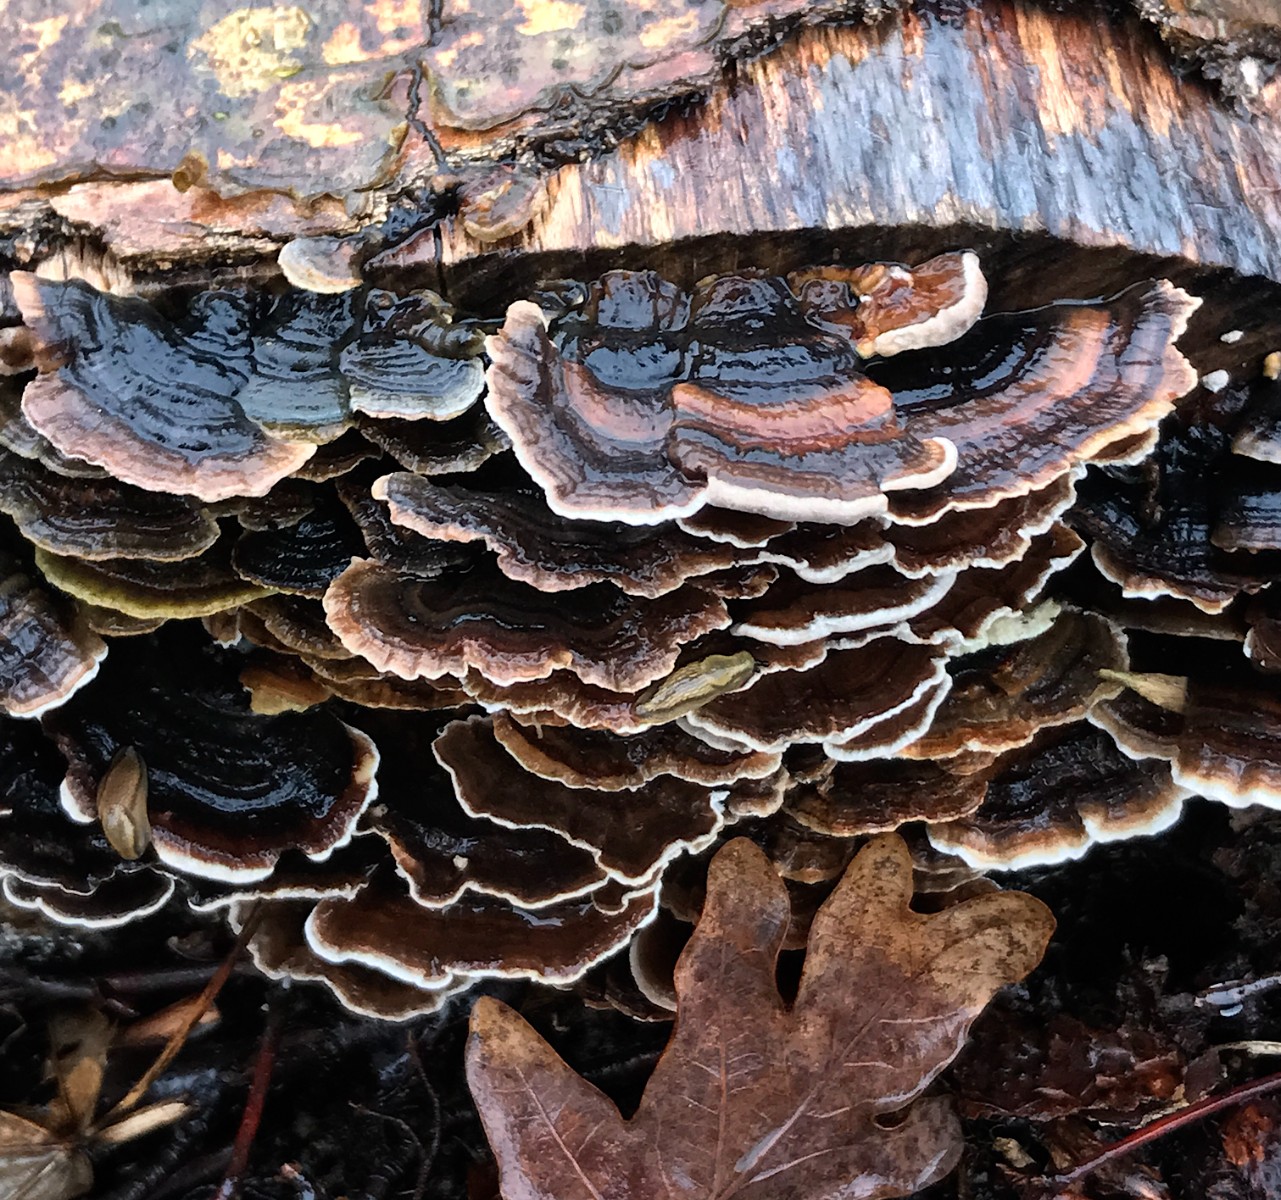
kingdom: Fungi
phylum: Basidiomycota
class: Agaricomycetes
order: Polyporales
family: Polyporaceae
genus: Trametes
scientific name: Trametes versicolor
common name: broget læderporesvamp
